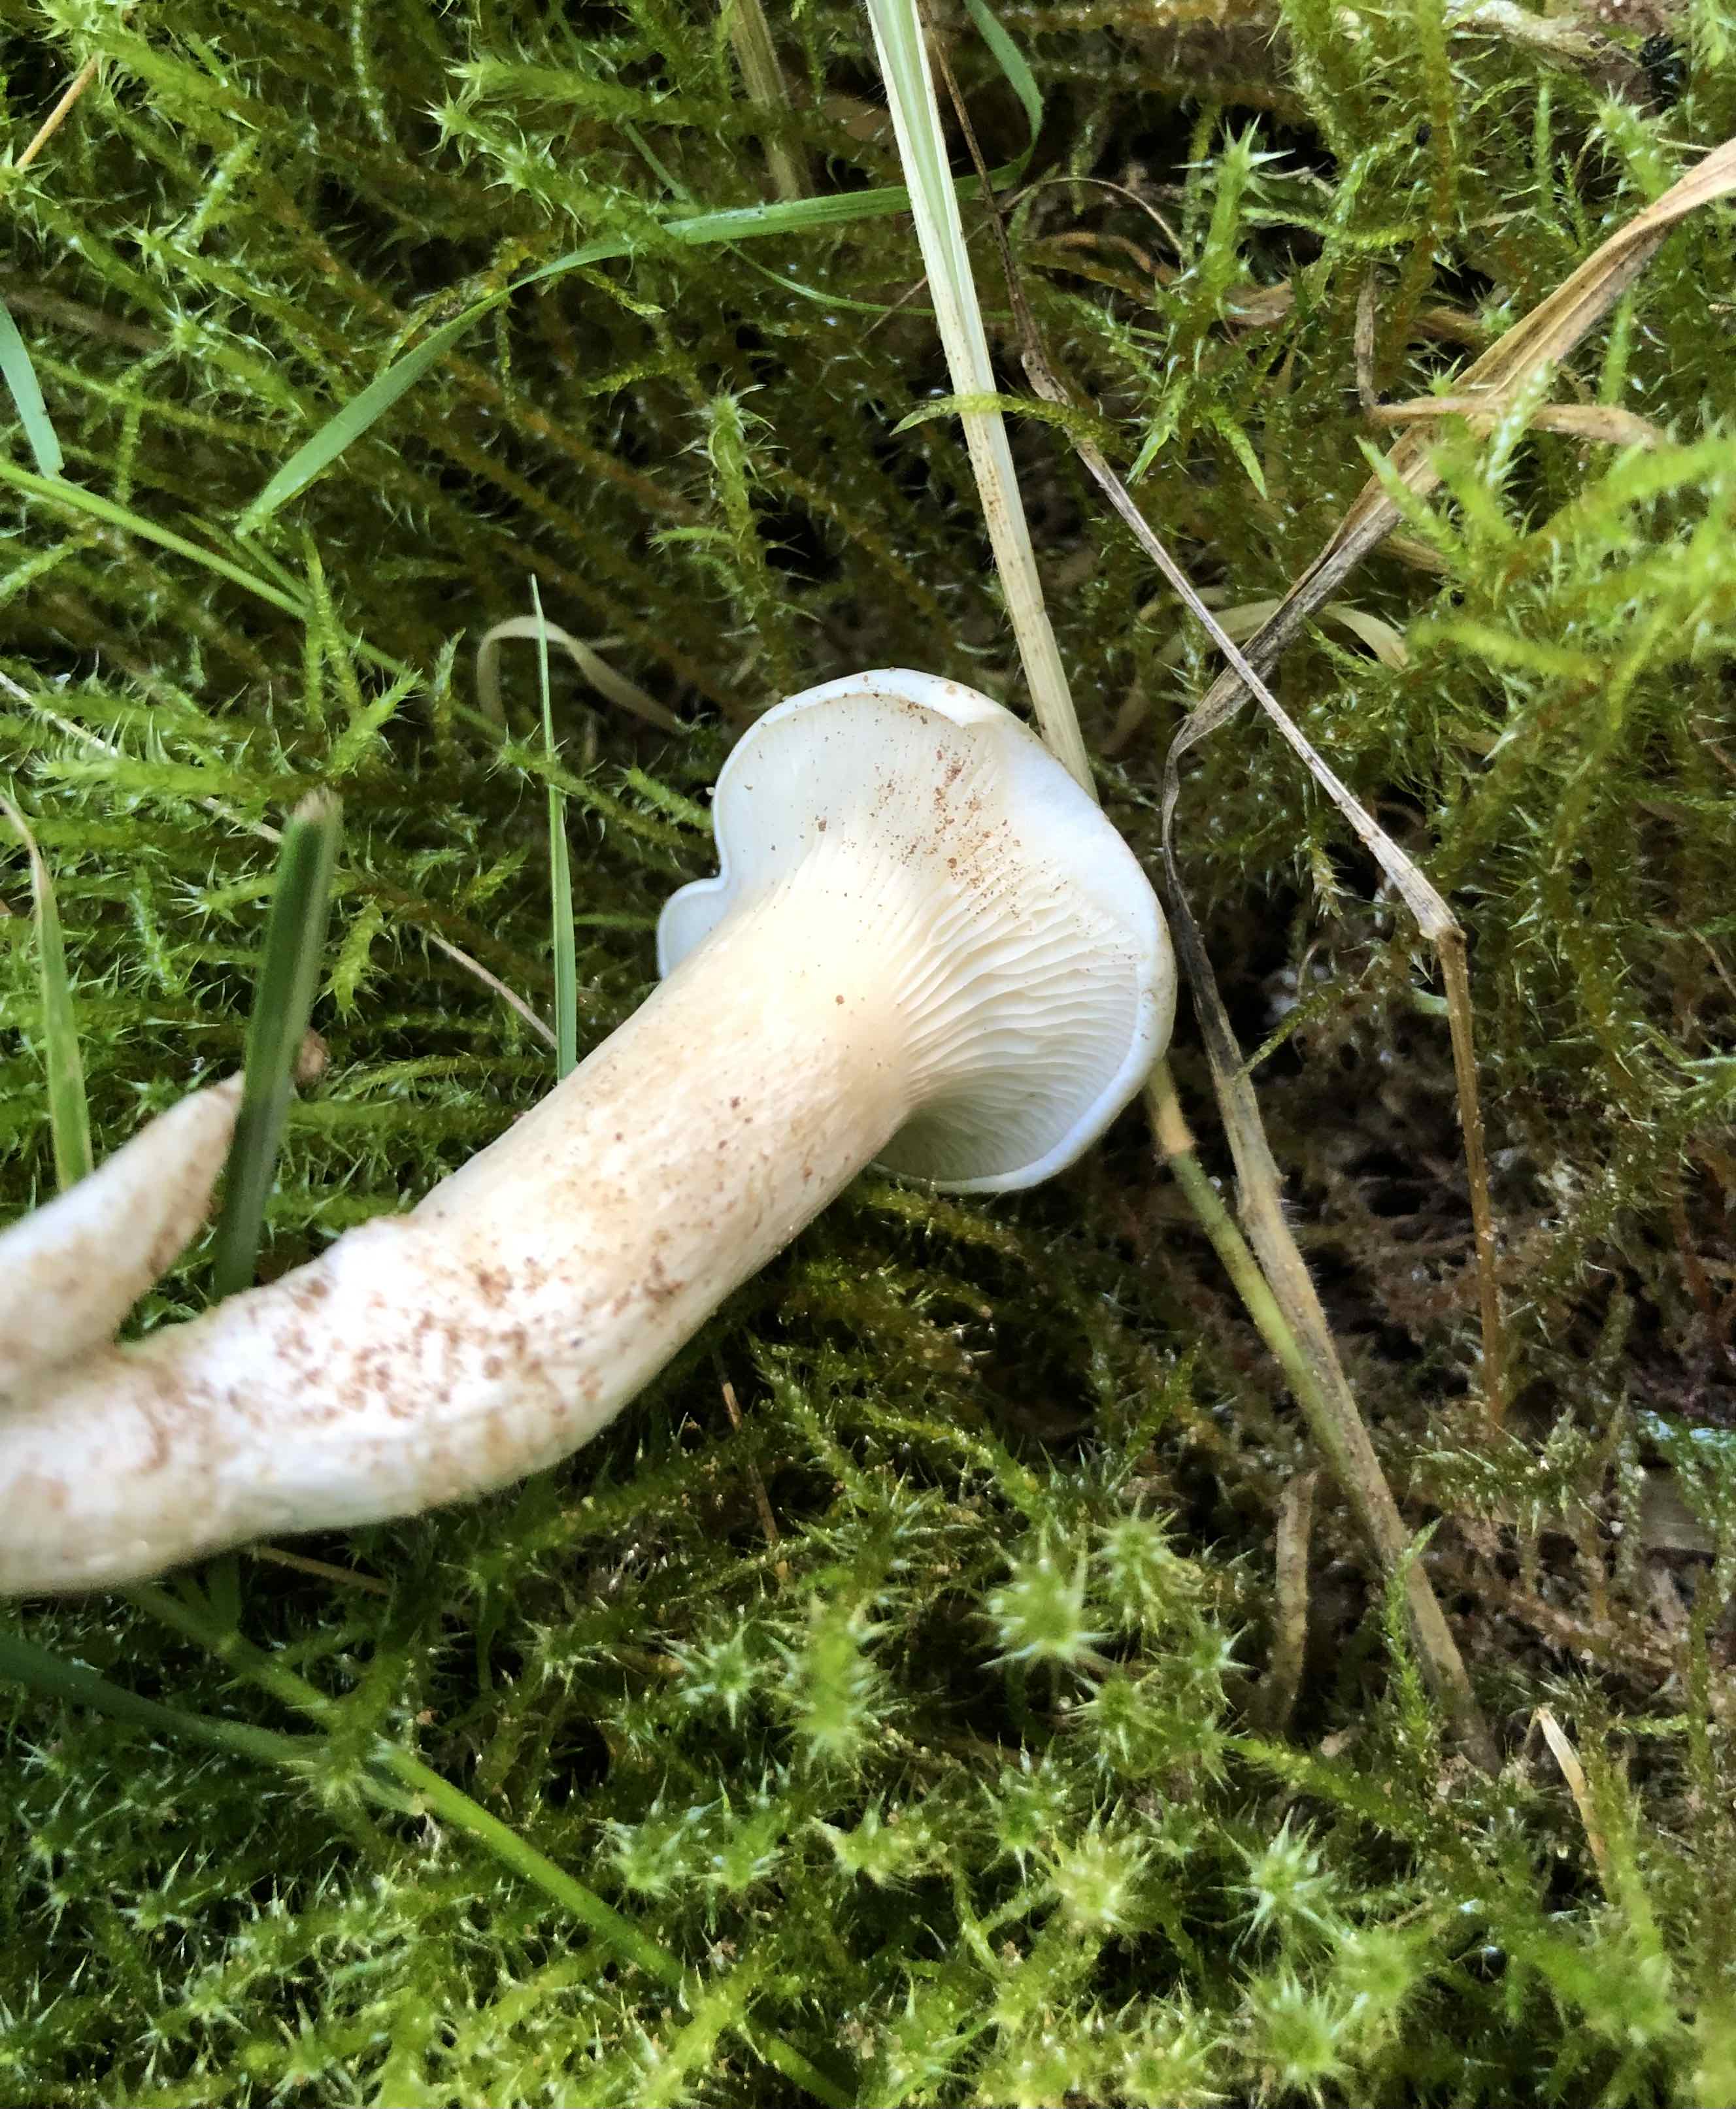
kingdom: Fungi
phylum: Basidiomycota
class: Agaricomycetes
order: Agaricales
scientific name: Agaricales
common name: champignonordenen
